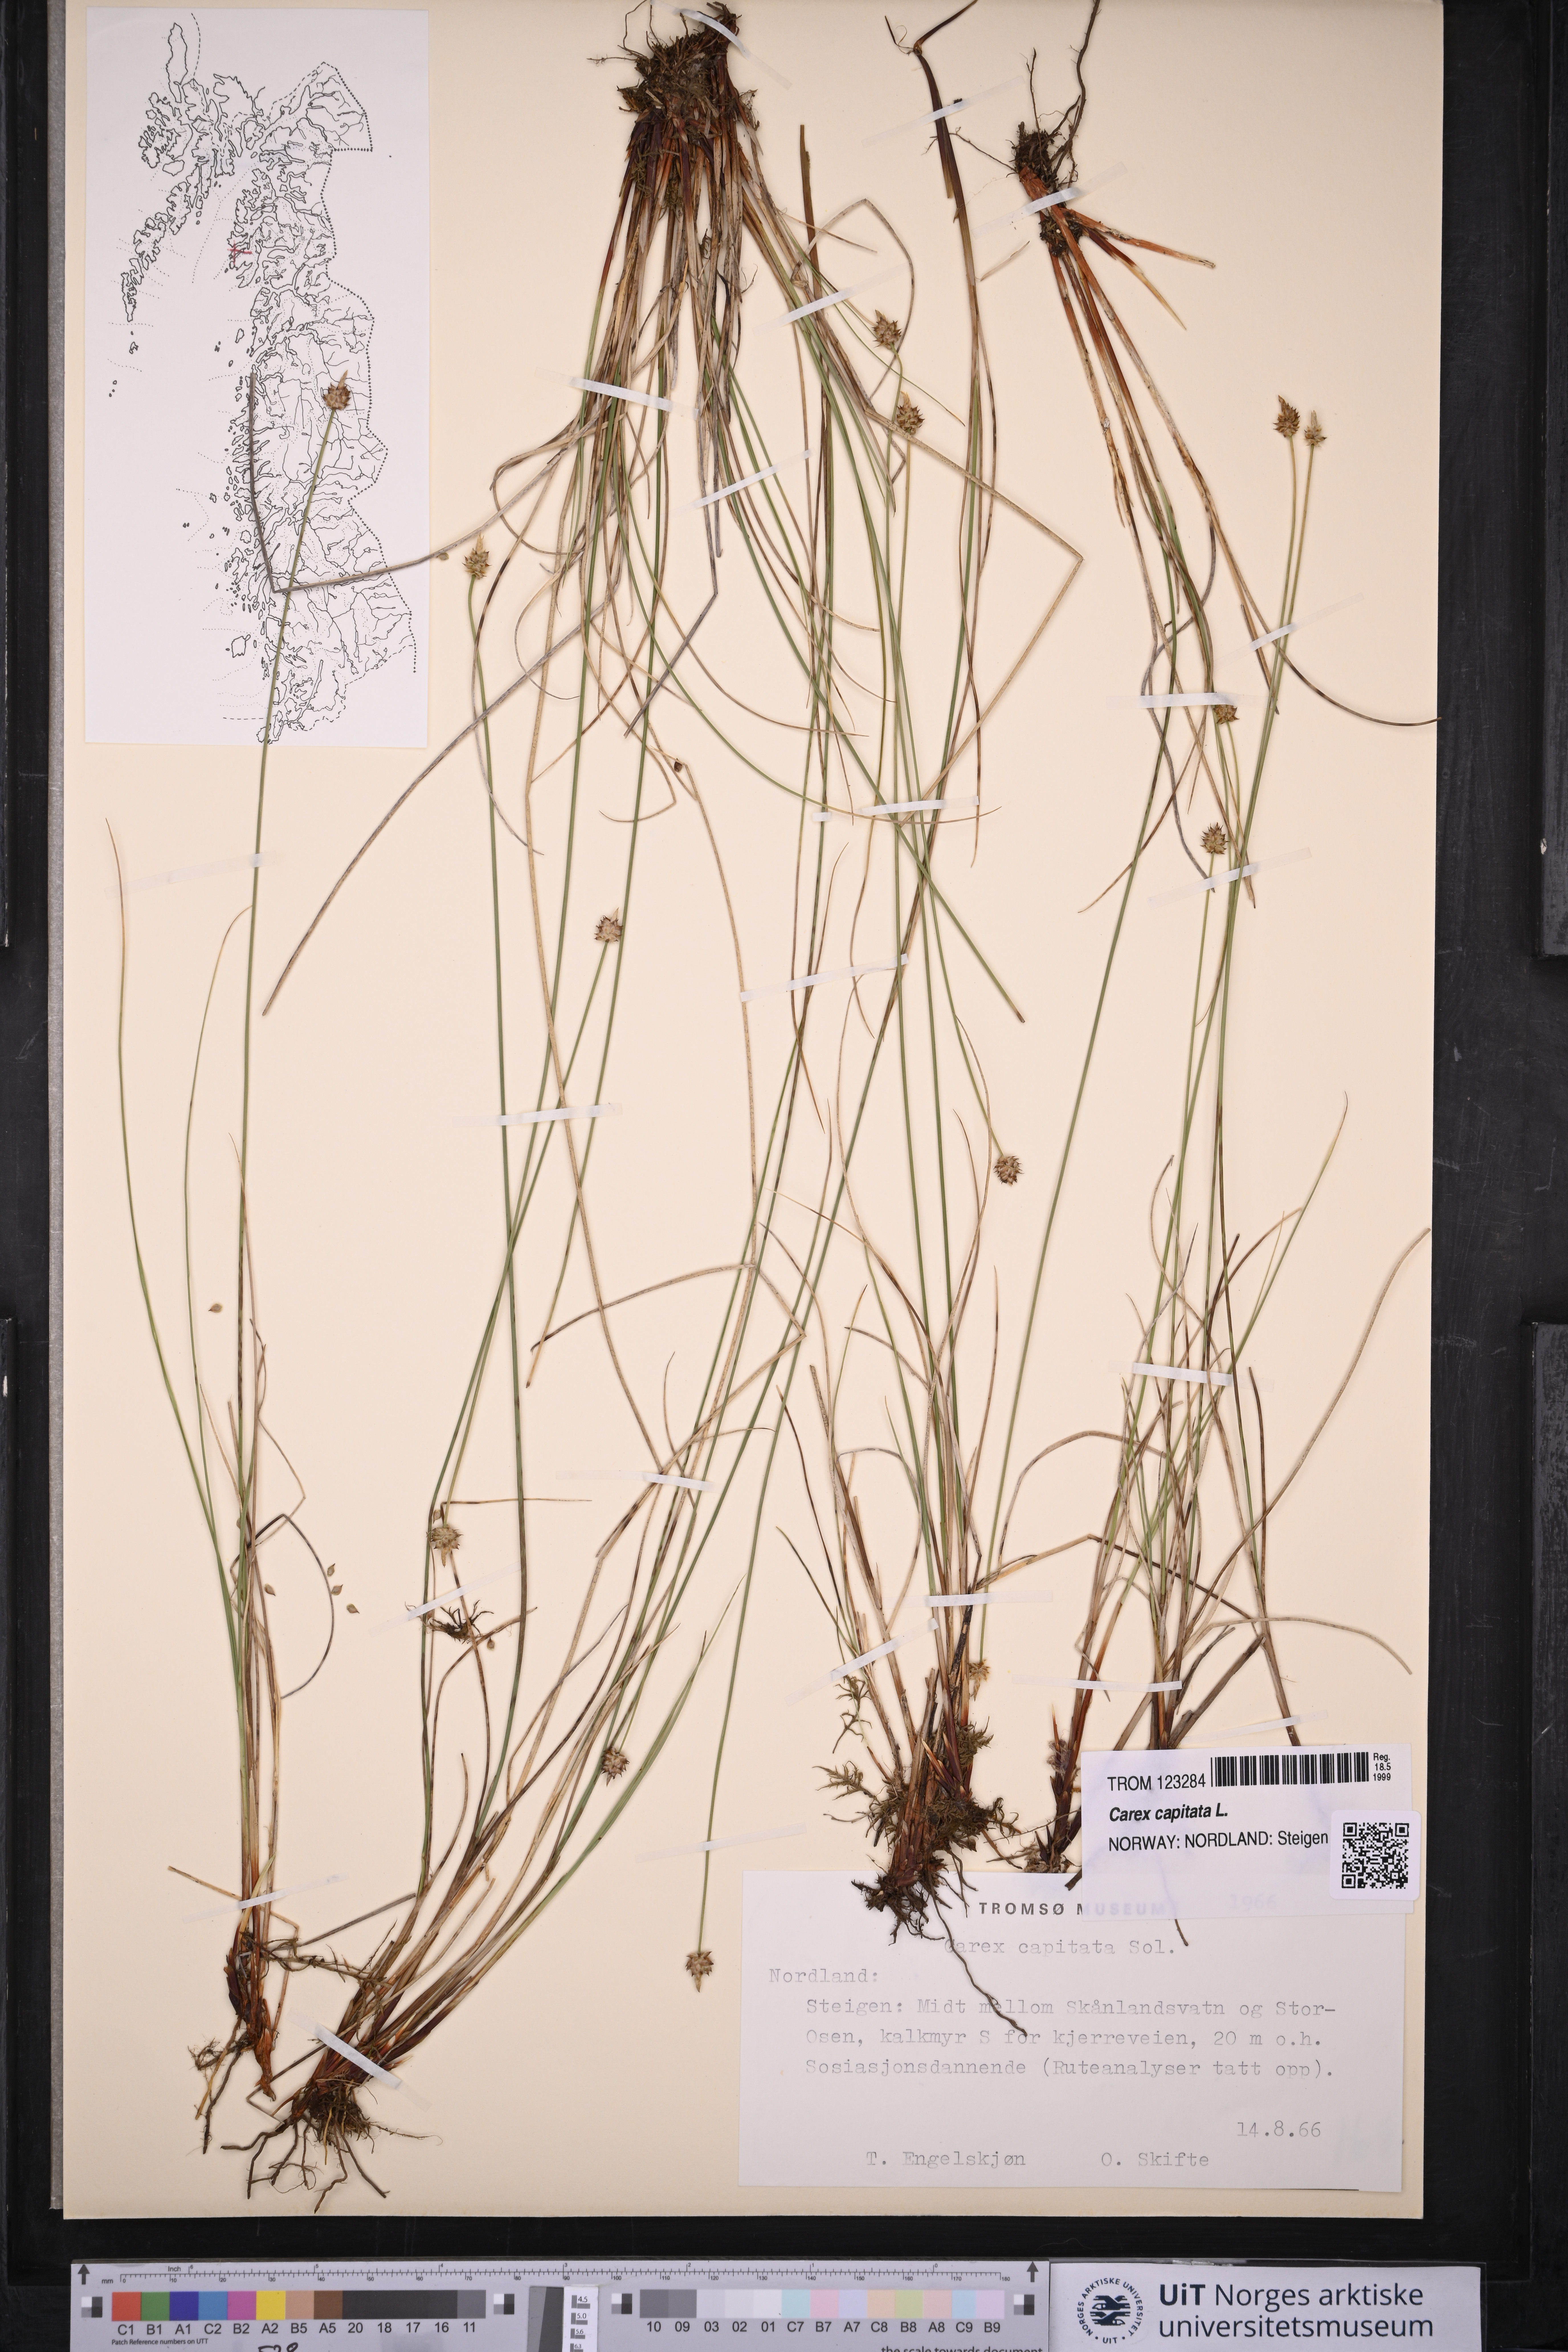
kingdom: Plantae
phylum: Tracheophyta
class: Liliopsida
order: Poales
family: Cyperaceae
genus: Carex
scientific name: Carex capitata
